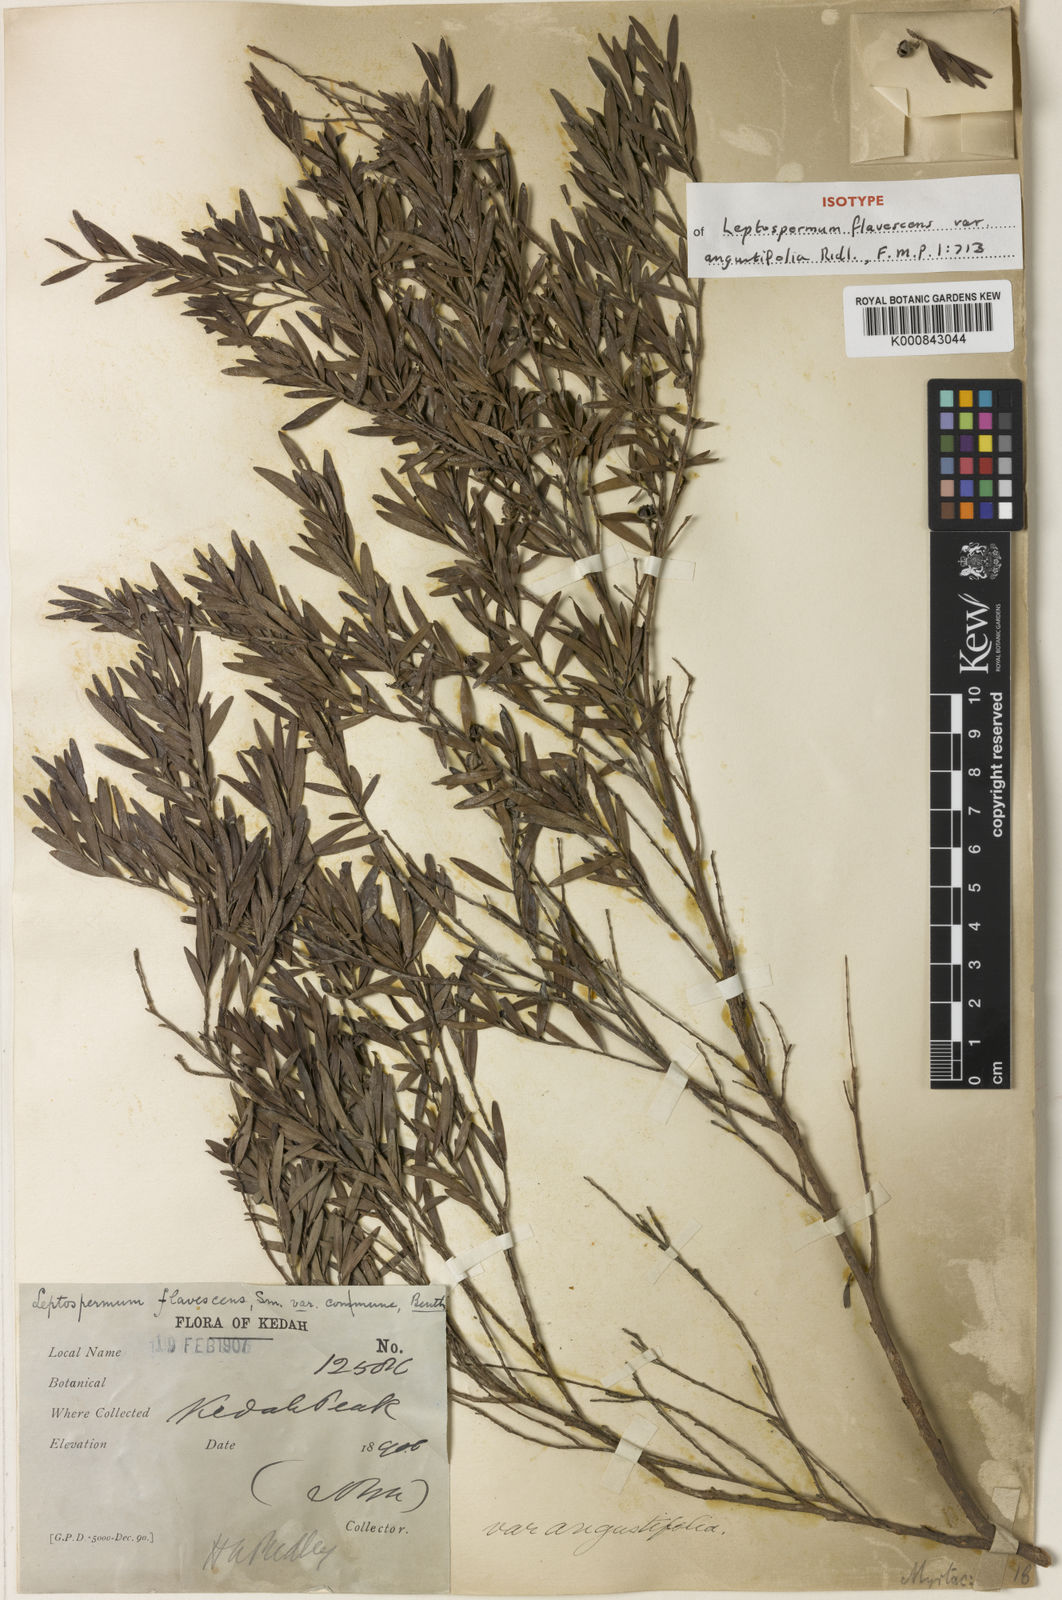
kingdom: Plantae
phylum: Tracheophyta
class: Magnoliopsida
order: Myrtales
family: Myrtaceae
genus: Leptospermum
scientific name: Leptospermum javanicum
